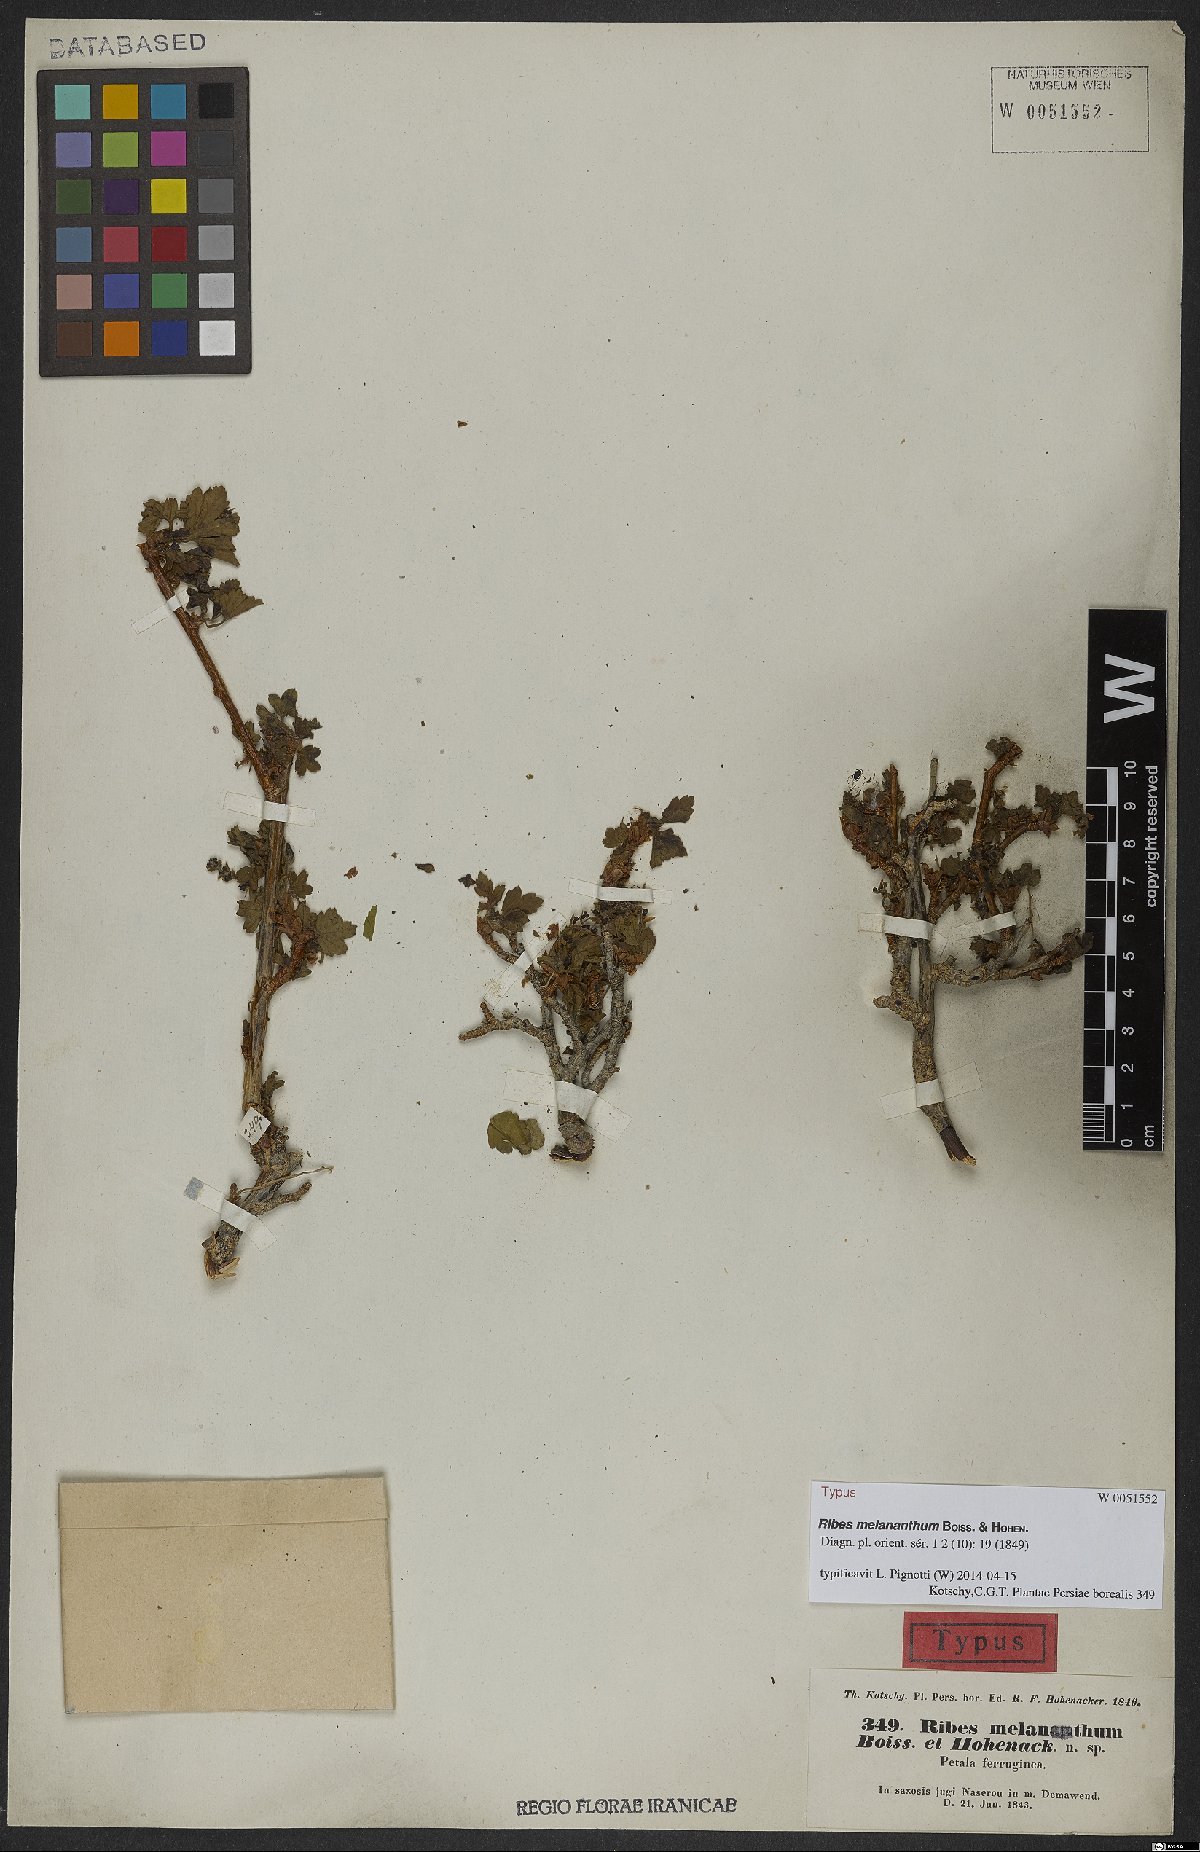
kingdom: Plantae
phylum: Tracheophyta
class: Magnoliopsida
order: Saxifragales
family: Grossulariaceae
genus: Ribes
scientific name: Ribes melananthum
